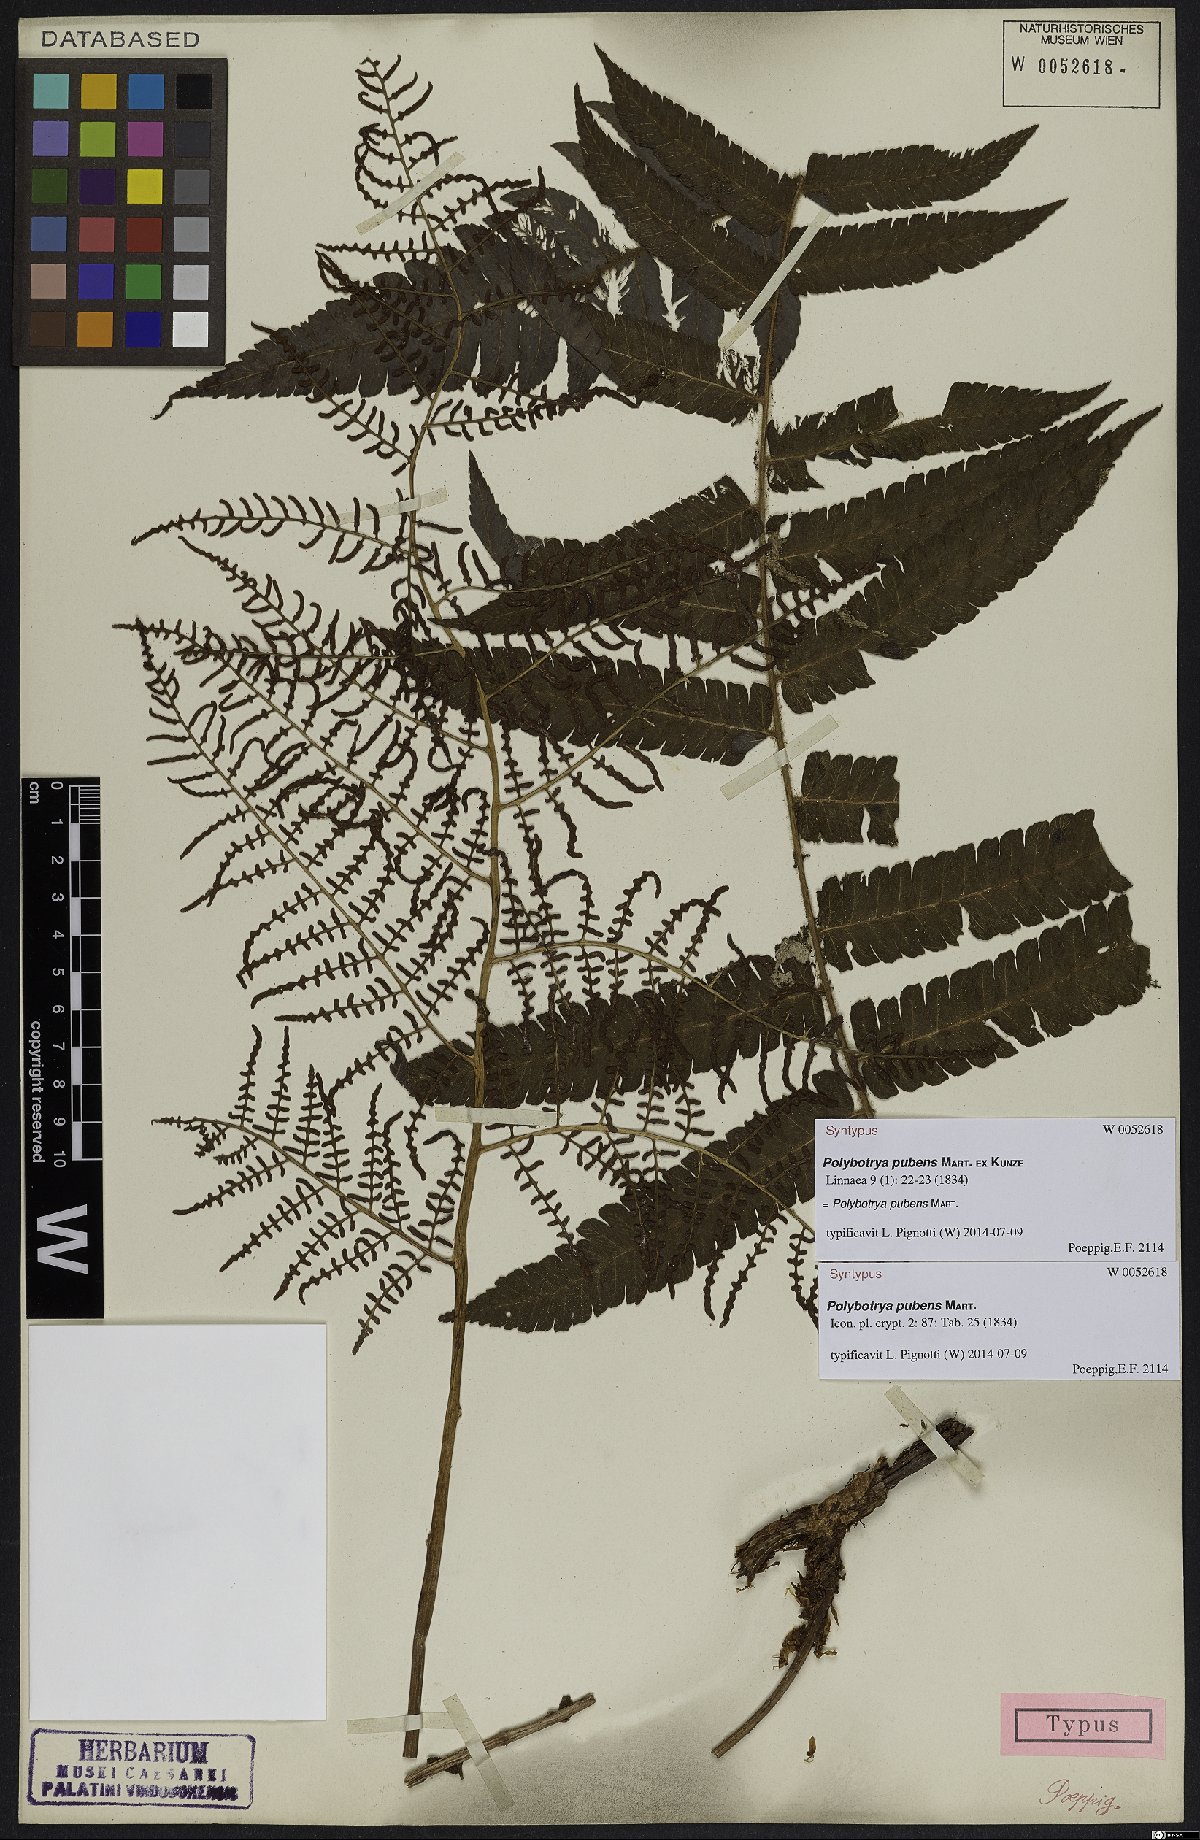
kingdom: Plantae
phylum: Tracheophyta
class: Polypodiopsida
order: Polypodiales
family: Dryopteridaceae
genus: Polybotrya
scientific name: Polybotrya pubens
